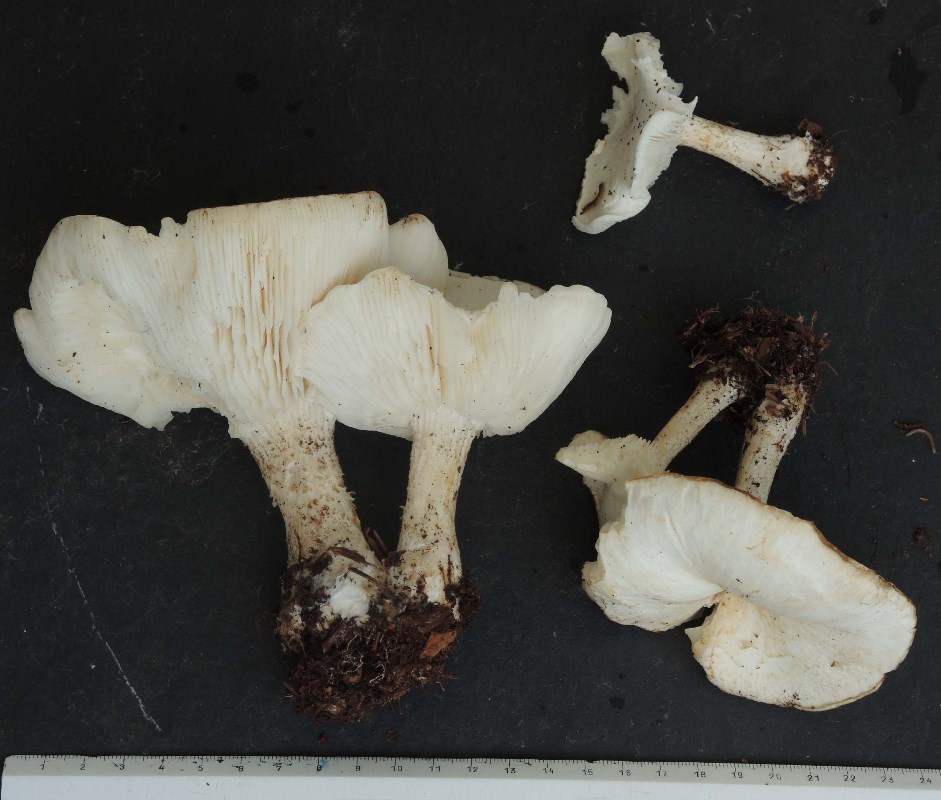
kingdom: Fungi
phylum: Basidiomycota
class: Agaricomycetes
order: Agaricales
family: Tricholomataceae
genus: Melanoleuca
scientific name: Melanoleuca verrucipes
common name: rufodet munkehat
